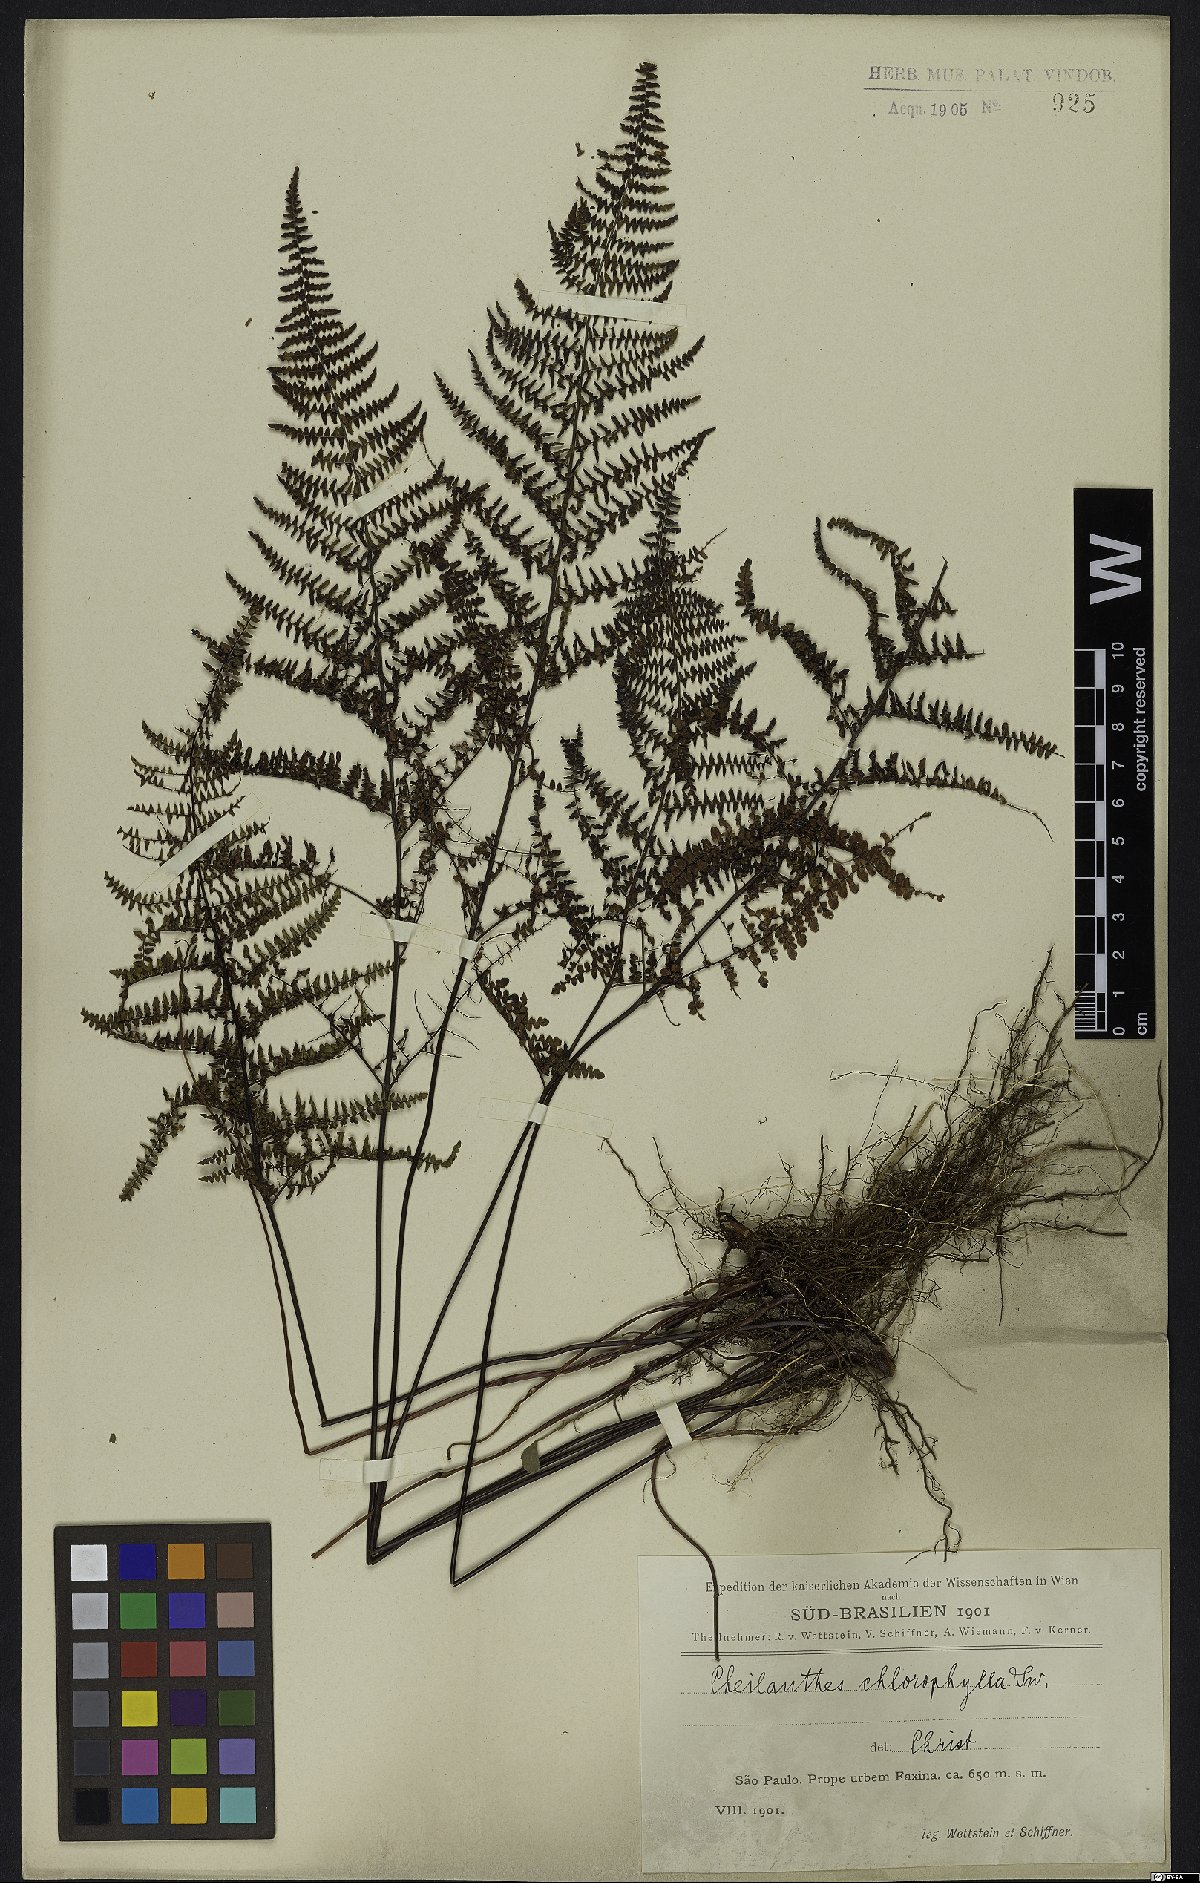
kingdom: Plantae
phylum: Tracheophyta
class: Polypodiopsida
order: Polypodiales
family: Pteridaceae
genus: Adiantopsis
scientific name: Adiantopsis chlorophylla
